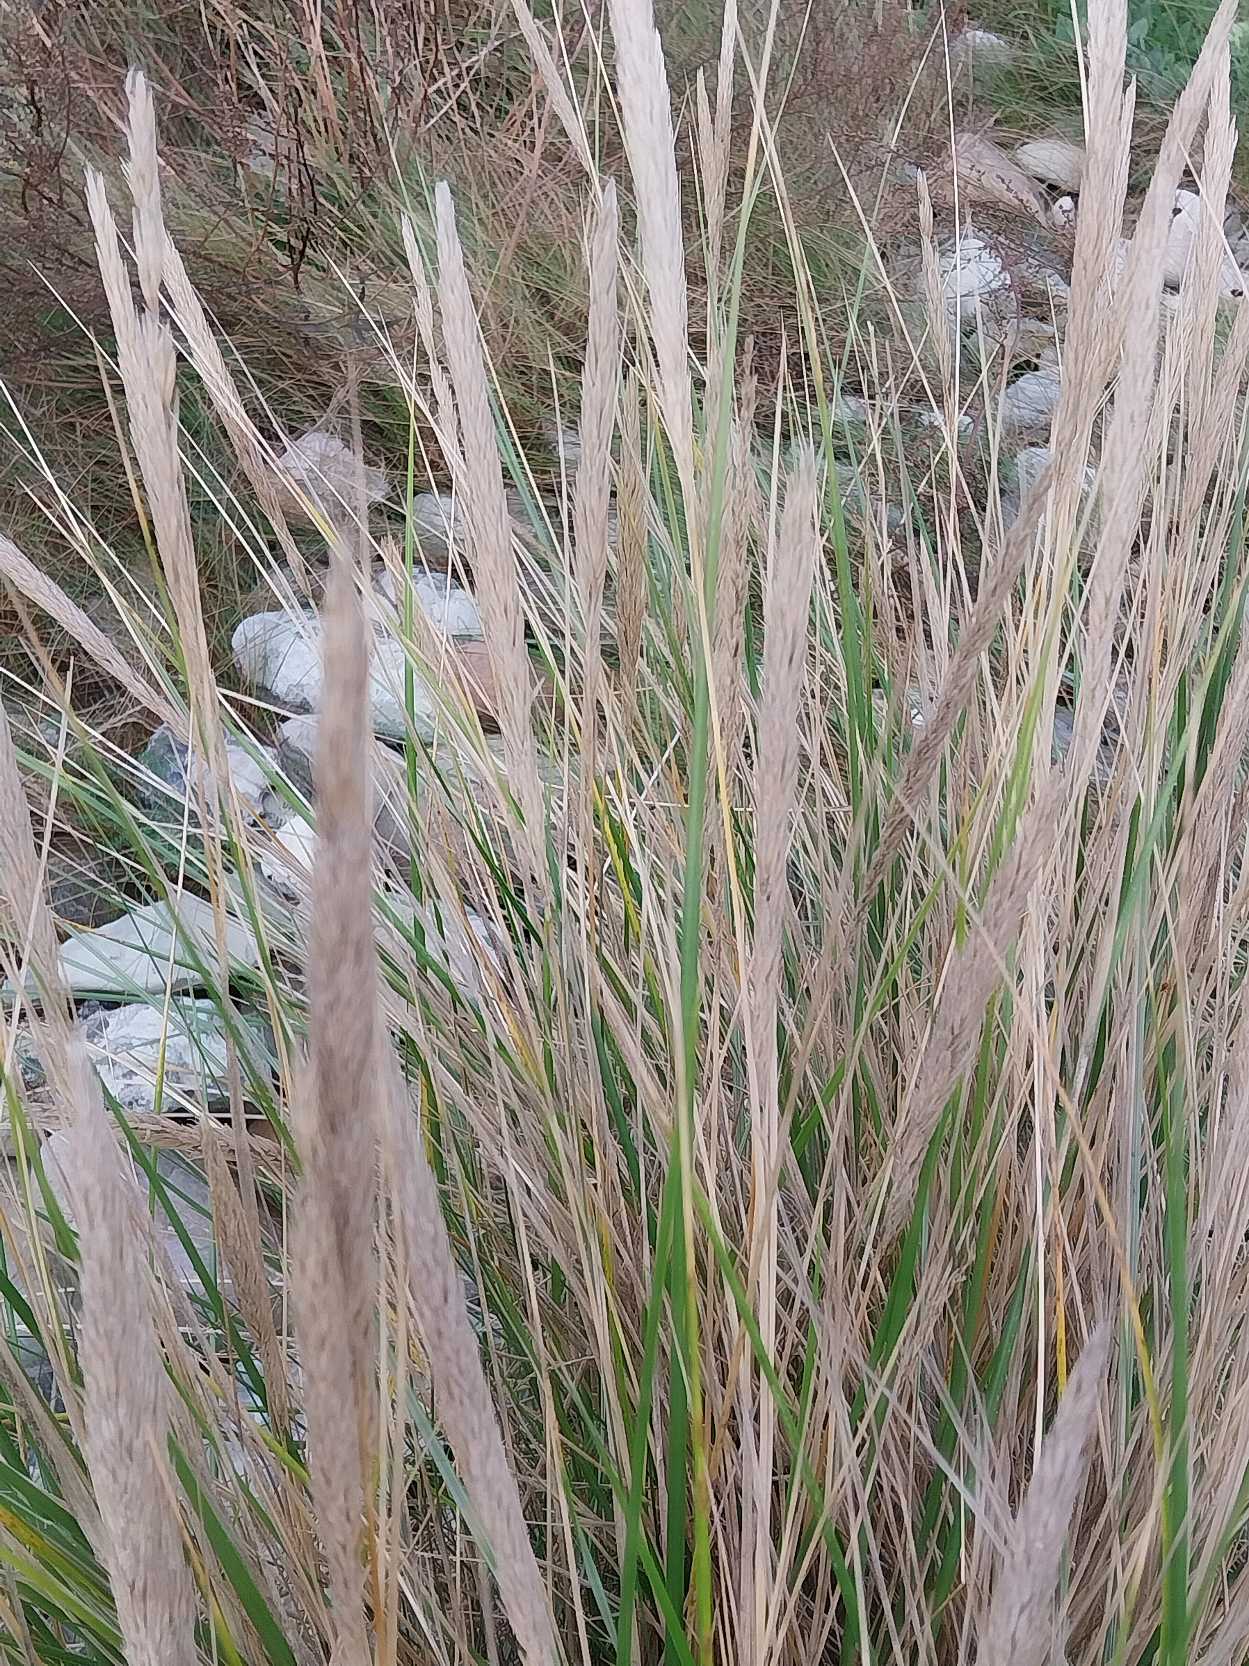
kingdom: Plantae
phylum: Tracheophyta
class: Liliopsida
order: Poales
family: Poaceae
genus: Calamagrostis
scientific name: Calamagrostis arenaria
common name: Sand-hjælme
